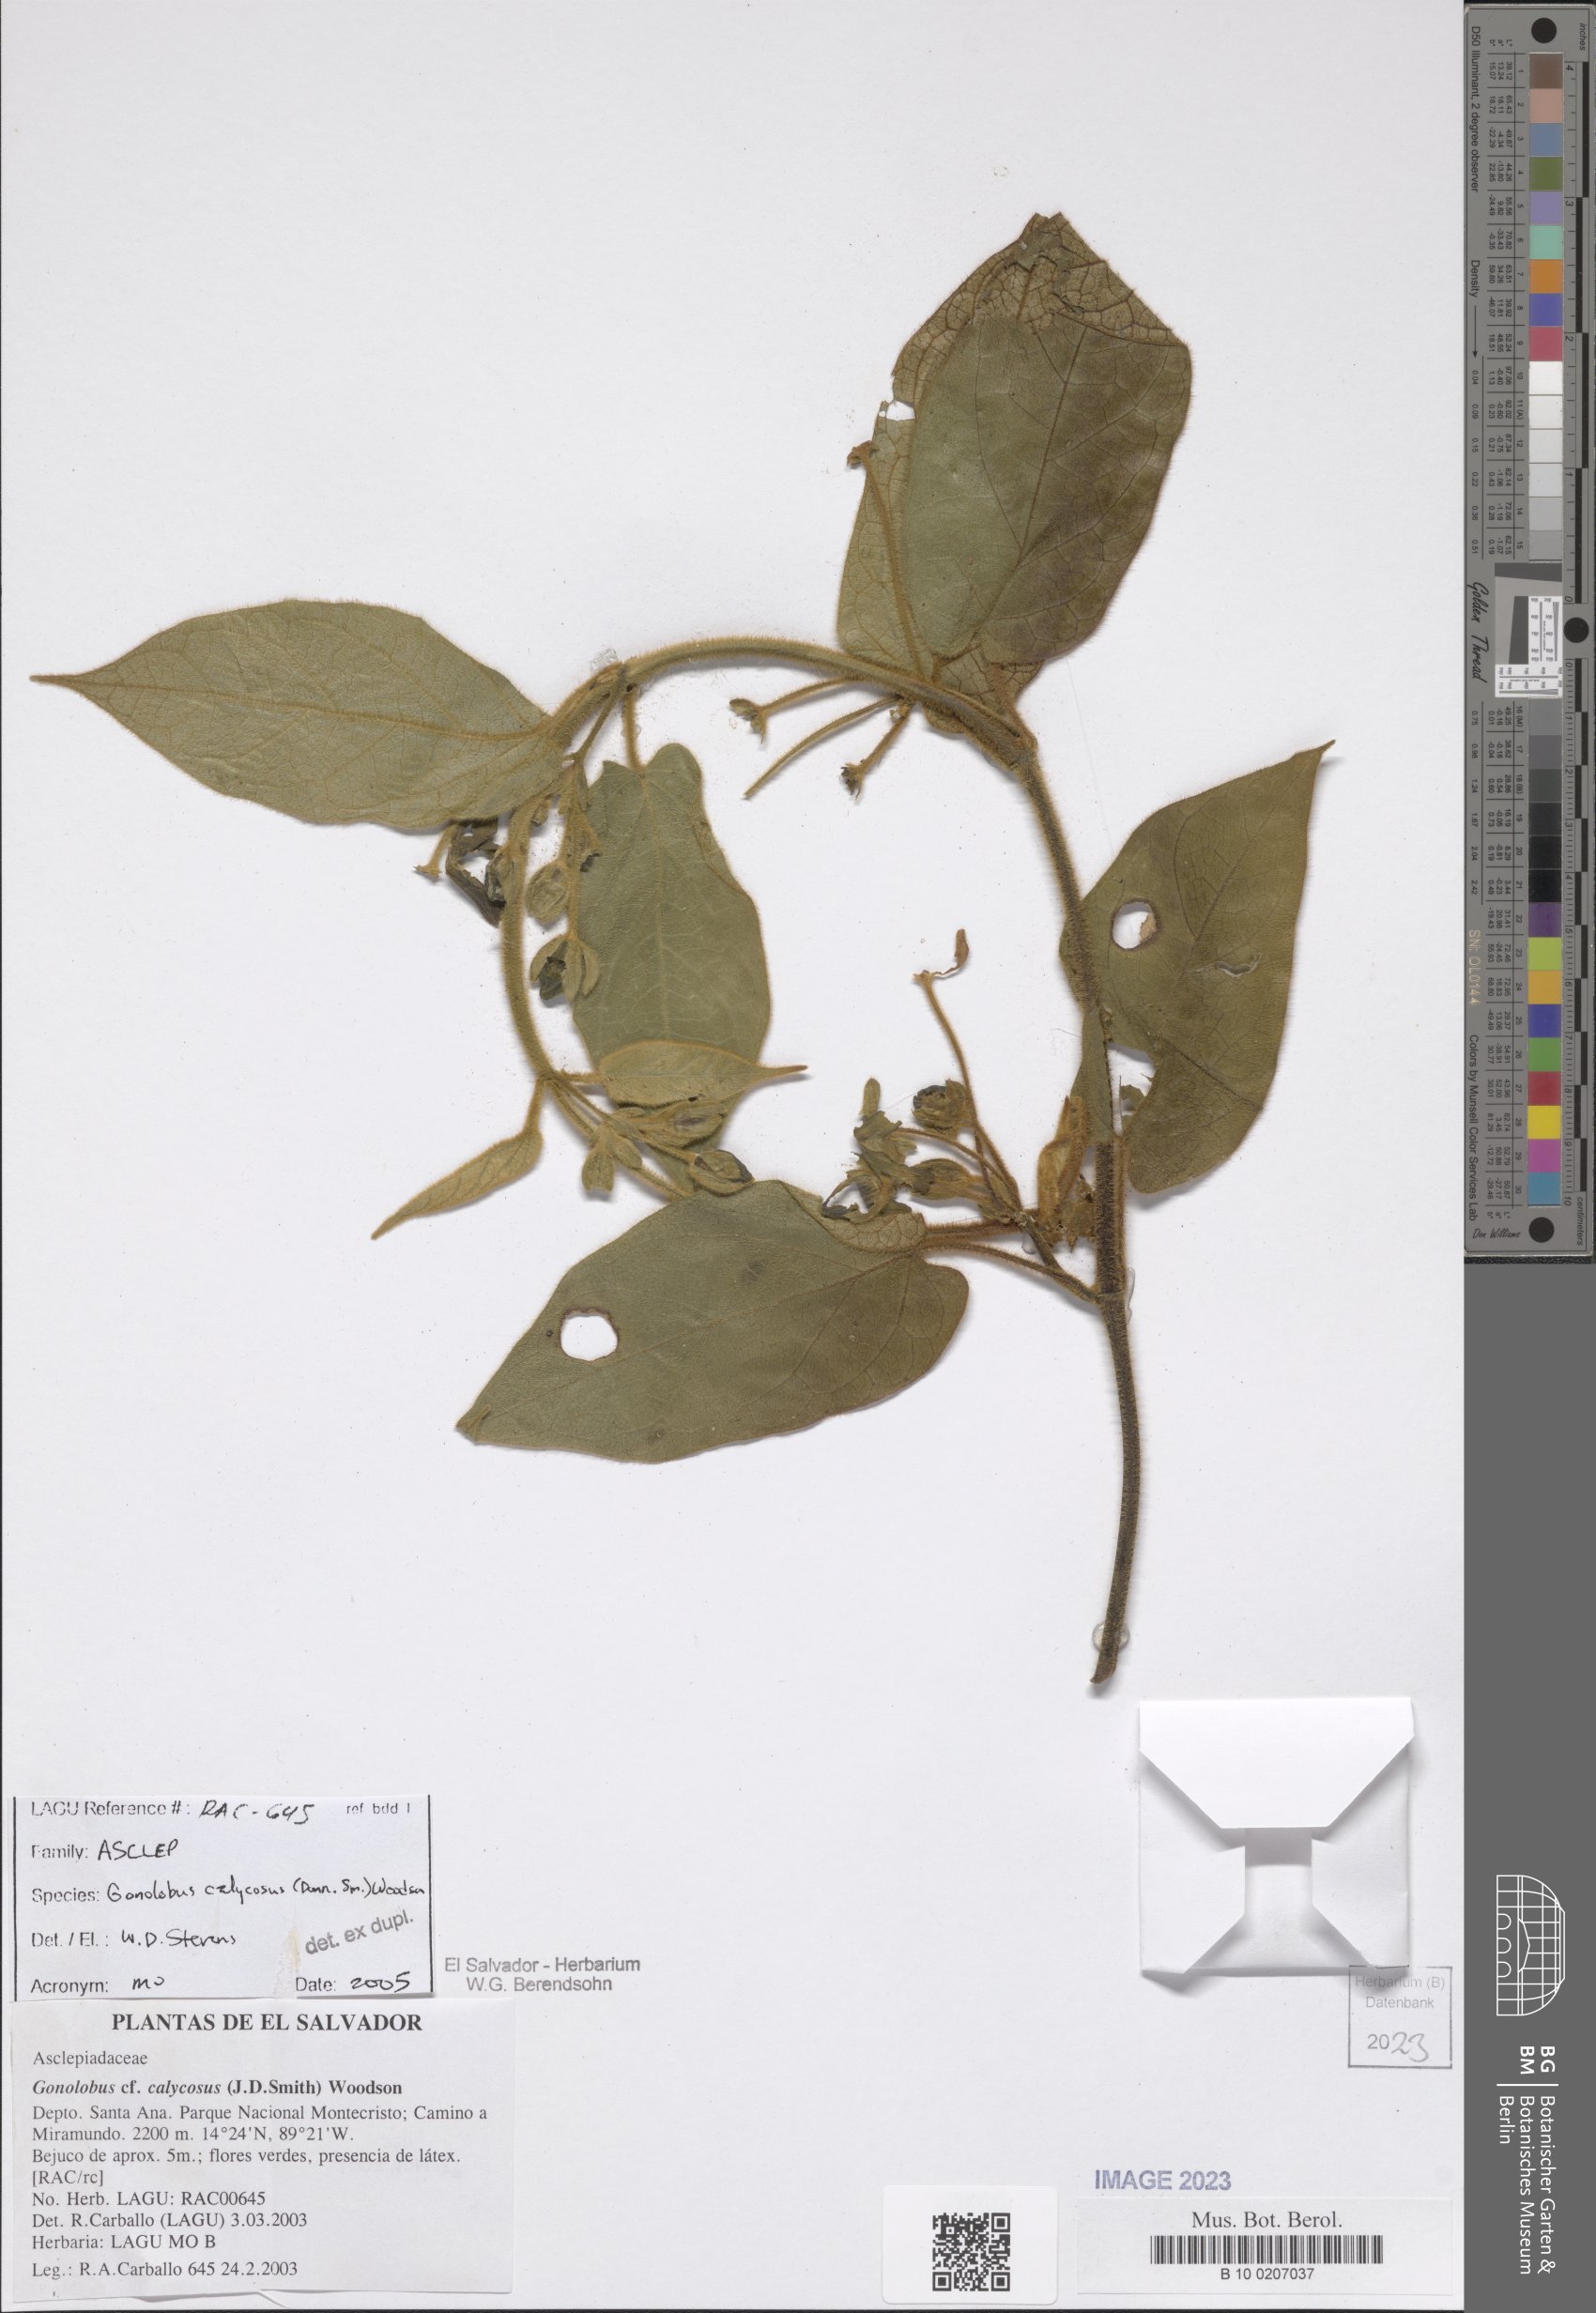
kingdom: Plantae
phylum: Tracheophyta
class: Magnoliopsida
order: Gentianales
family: Apocynaceae
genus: Gonolobus
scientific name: Gonolobus calycosus
